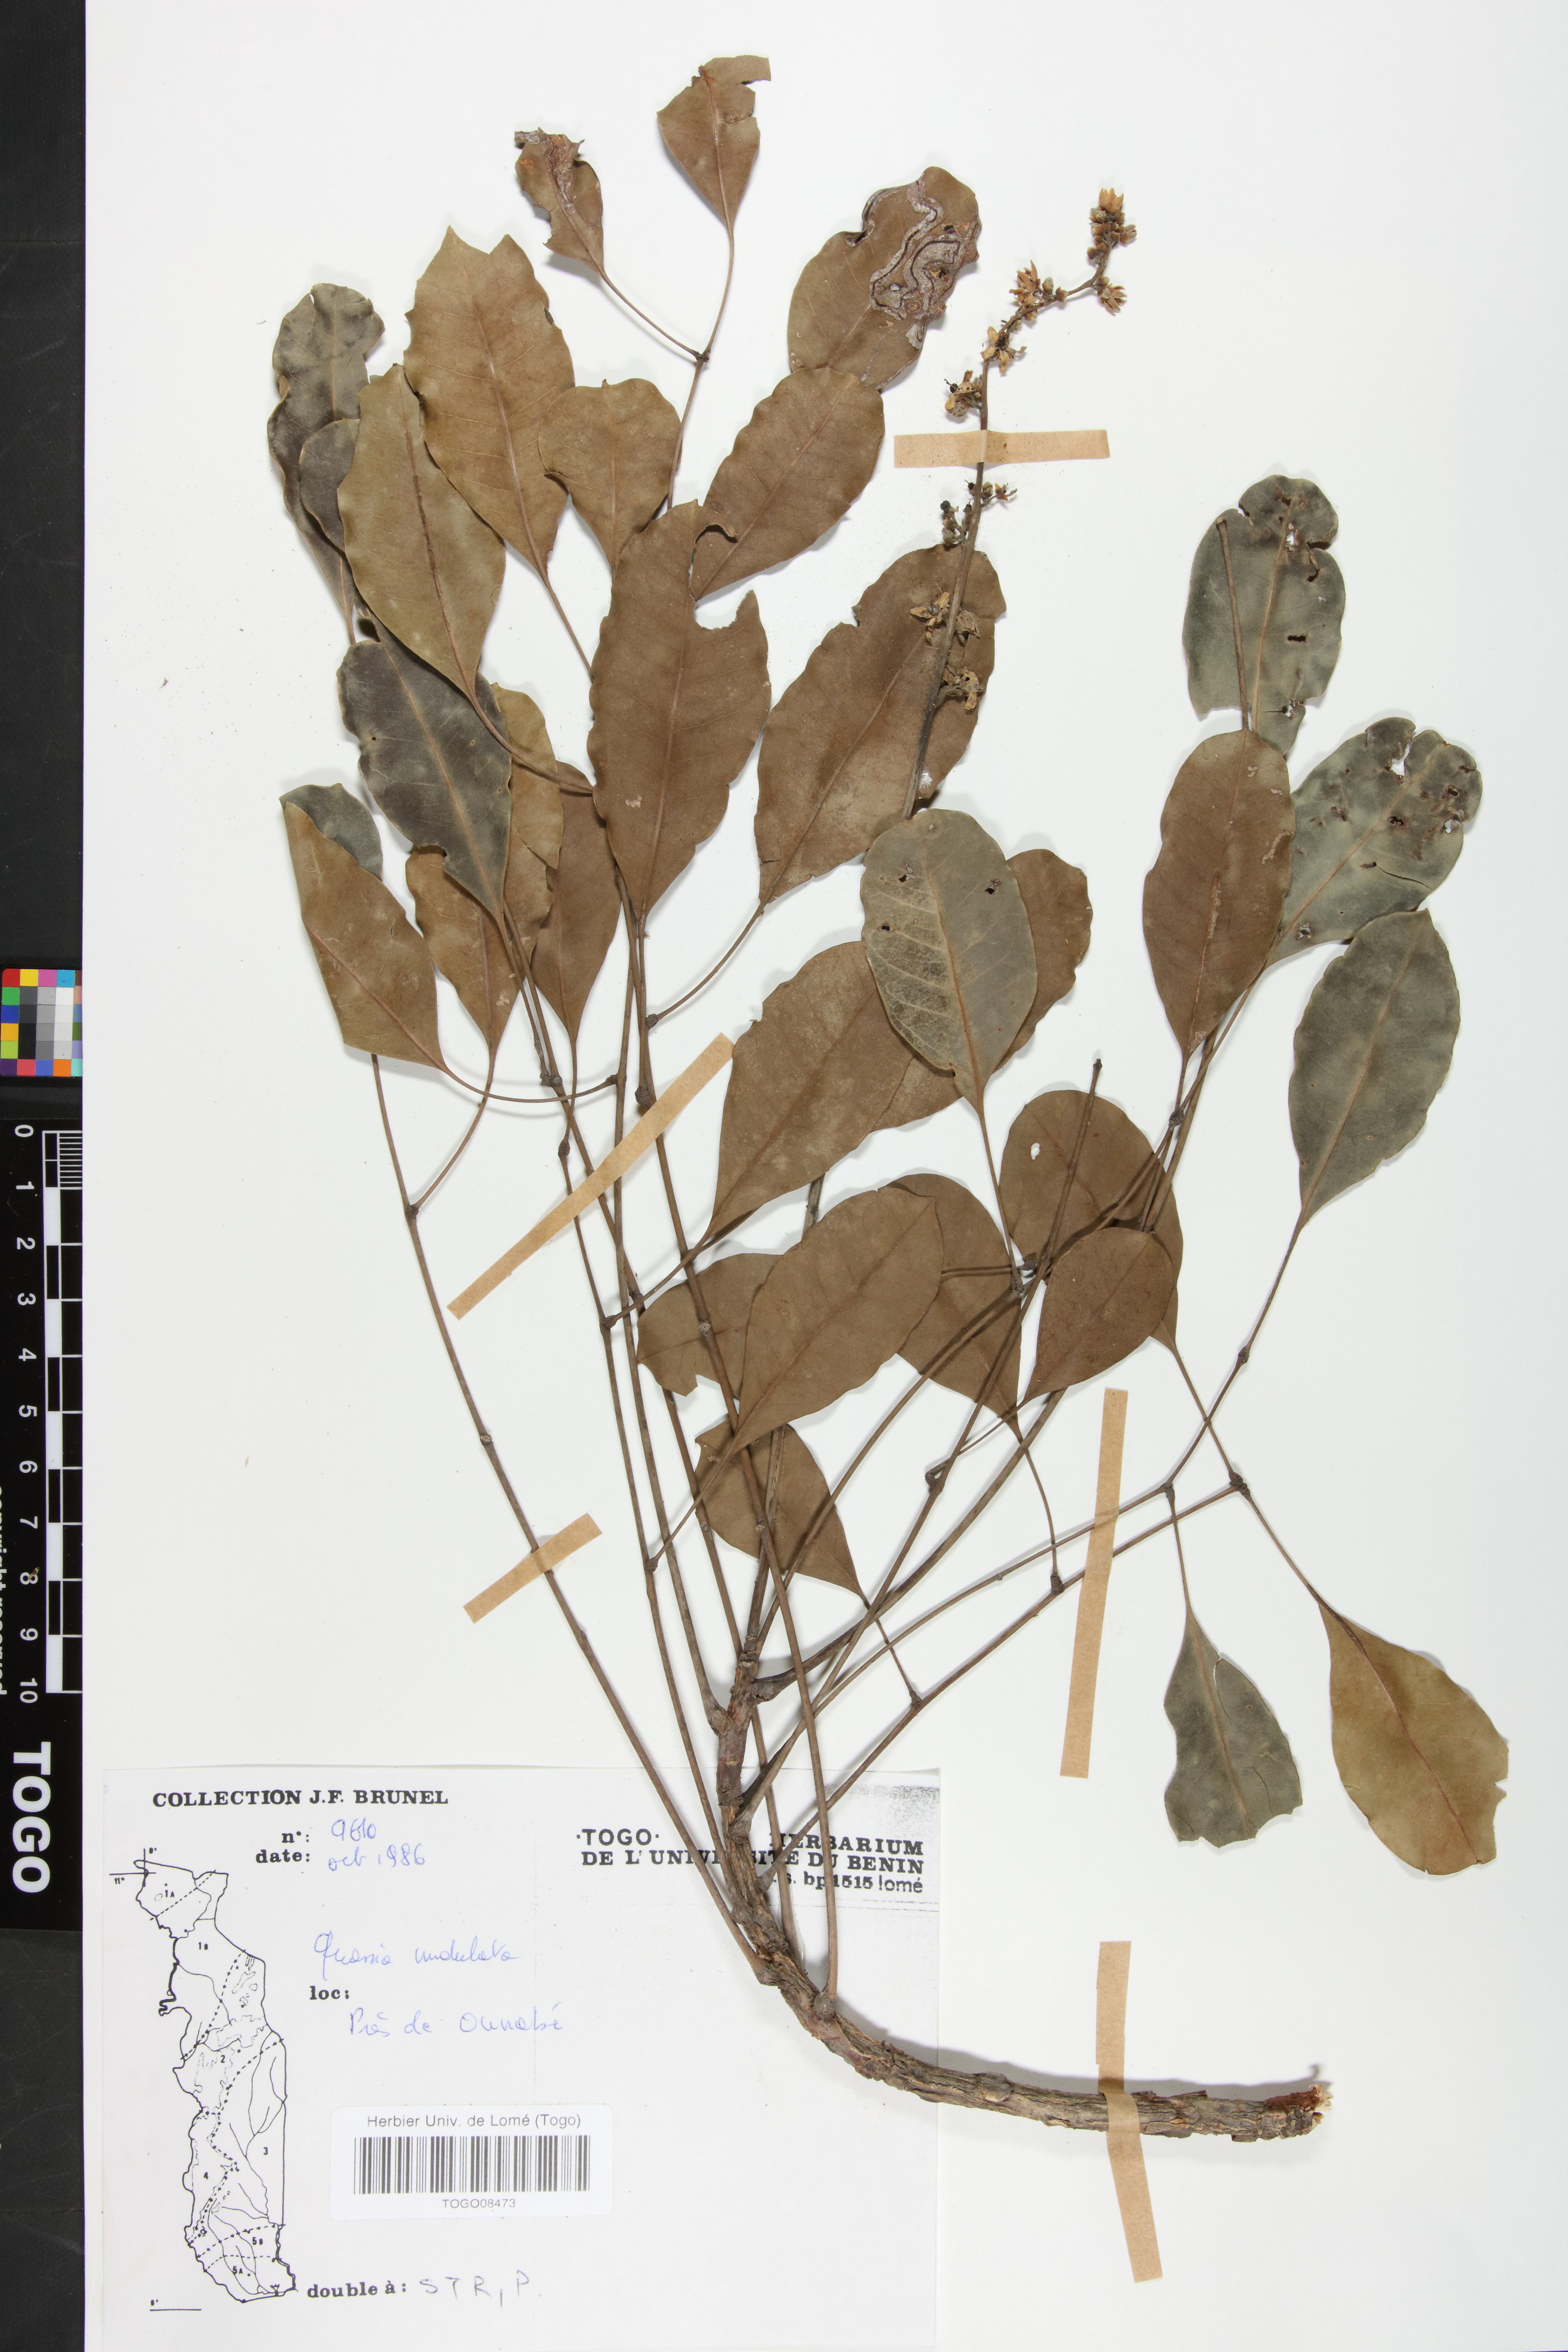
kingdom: Plantae
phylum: Tracheophyta
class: Magnoliopsida
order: Sapindales
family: Simaroubaceae
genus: Odyendyea
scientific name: Odyendyea klaineana
